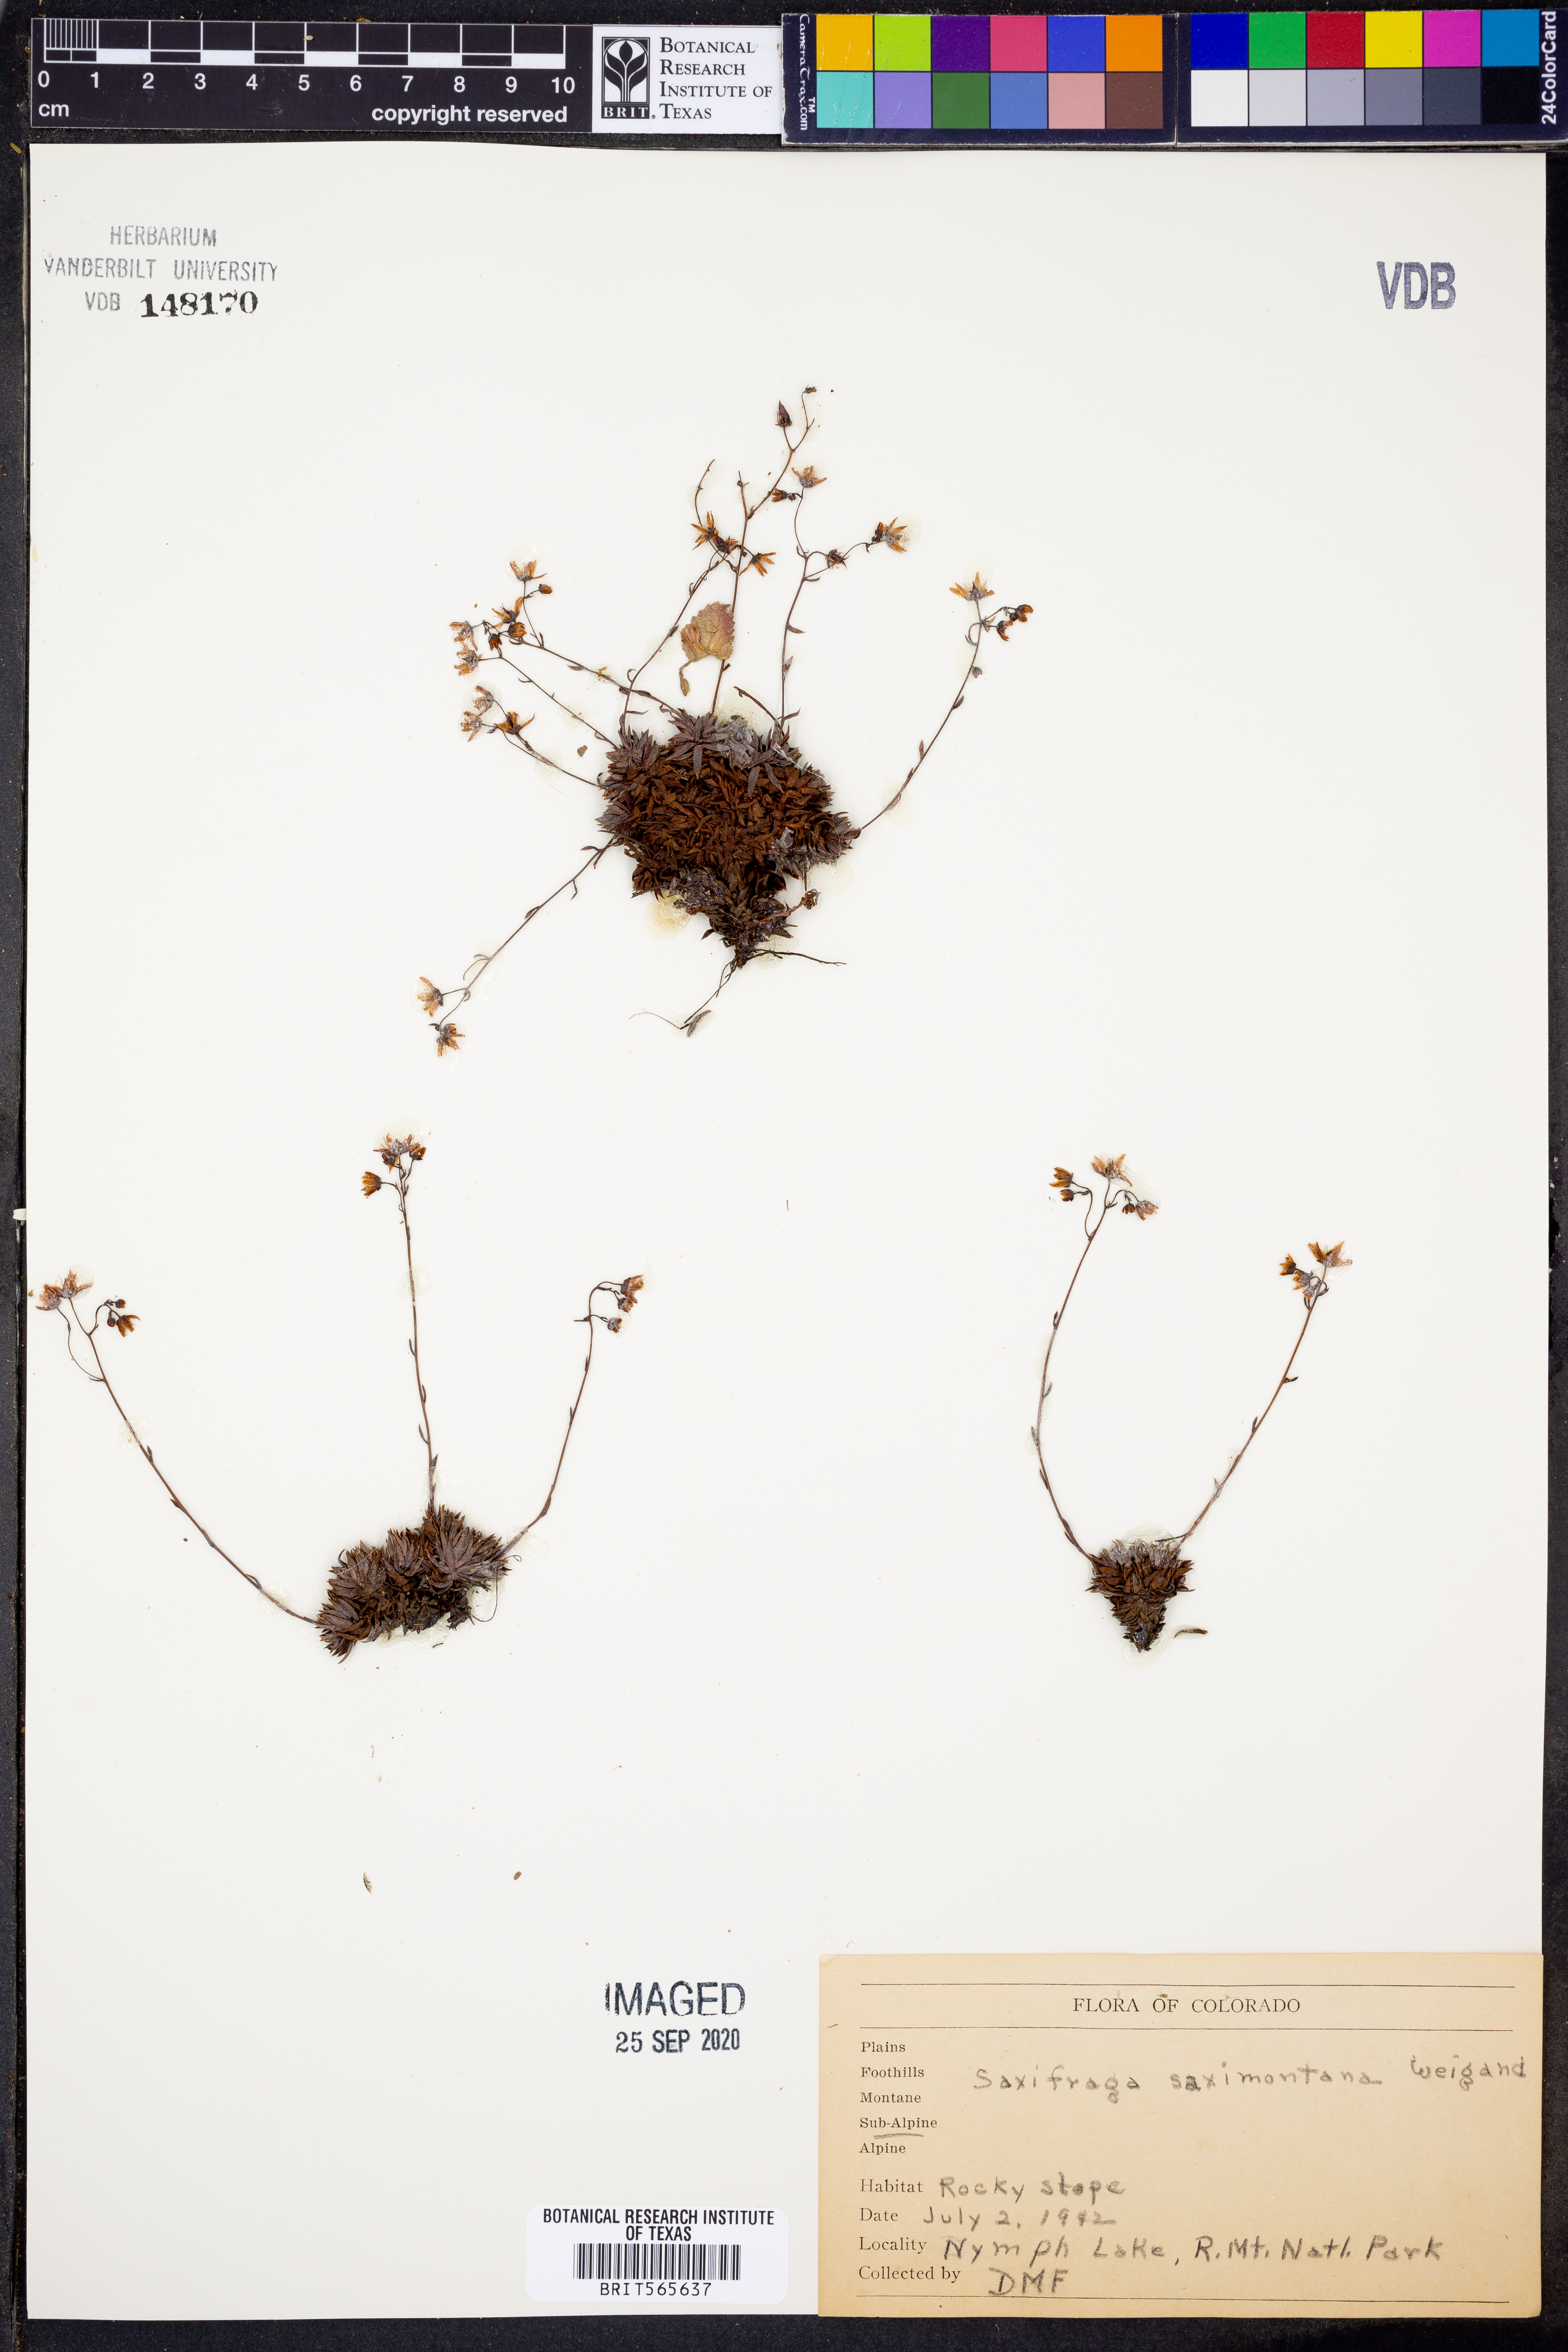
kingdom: Plantae
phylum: Tracheophyta
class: Magnoliopsida
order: Saxifragales
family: Saxifragaceae
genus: Micranthes
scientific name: Micranthes occidentalis
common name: Alberta saxifrage
